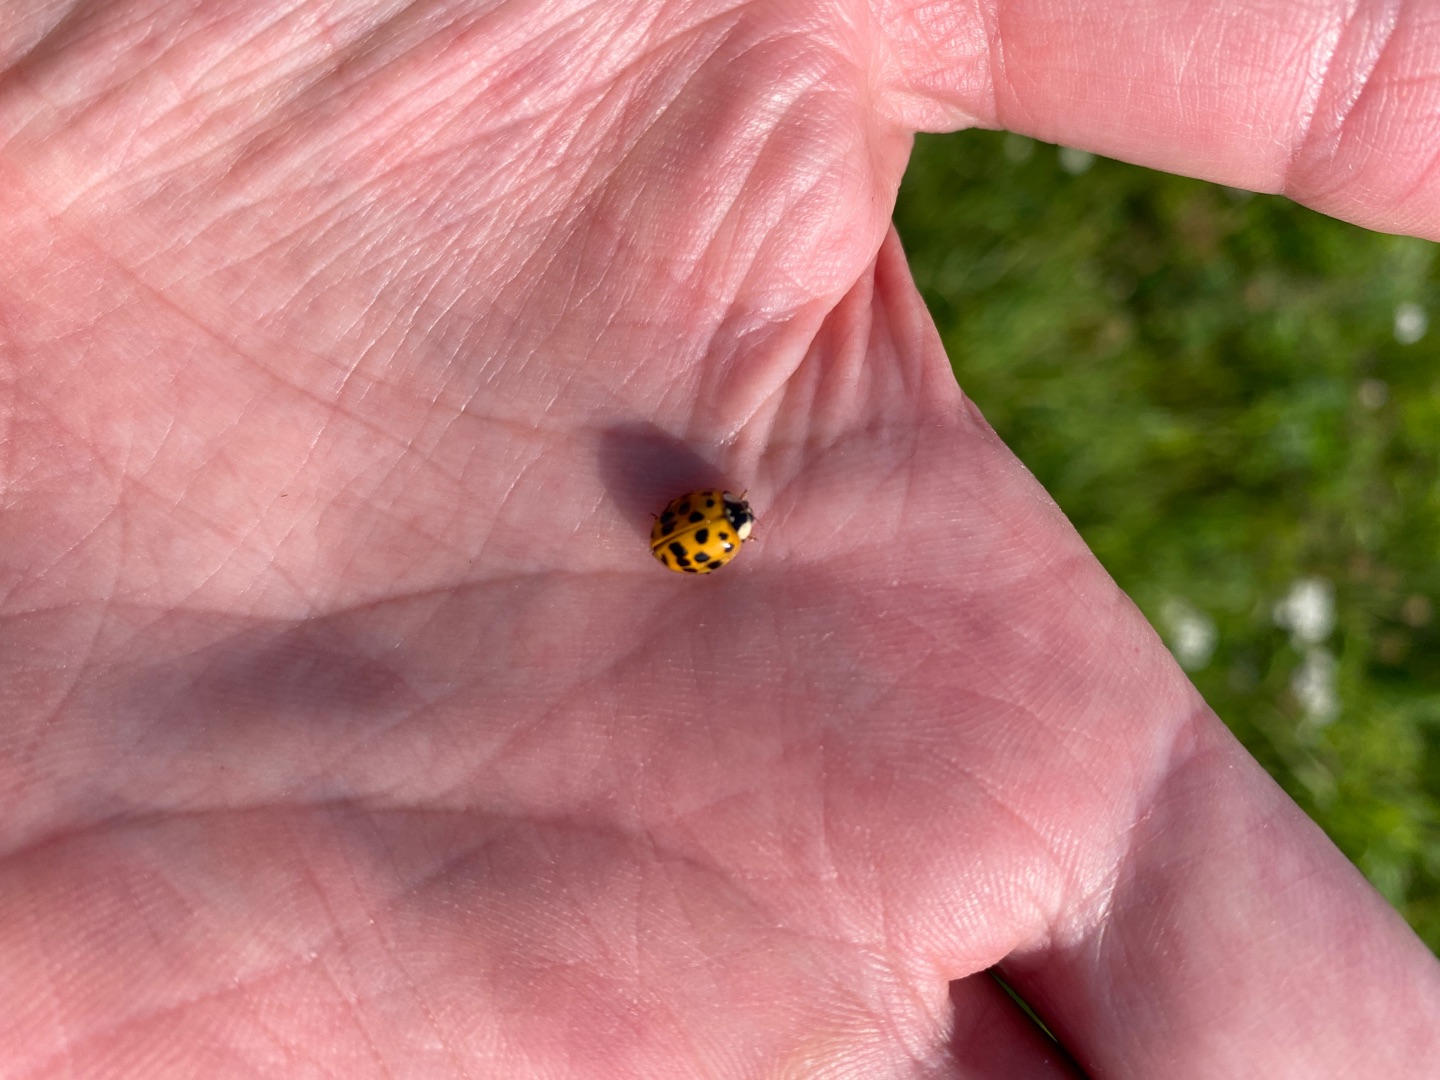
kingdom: Animalia
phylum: Arthropoda
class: Insecta
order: Coleoptera
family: Coccinellidae
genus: Harmonia
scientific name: Harmonia axyridis
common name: Harlekinmariehøne
